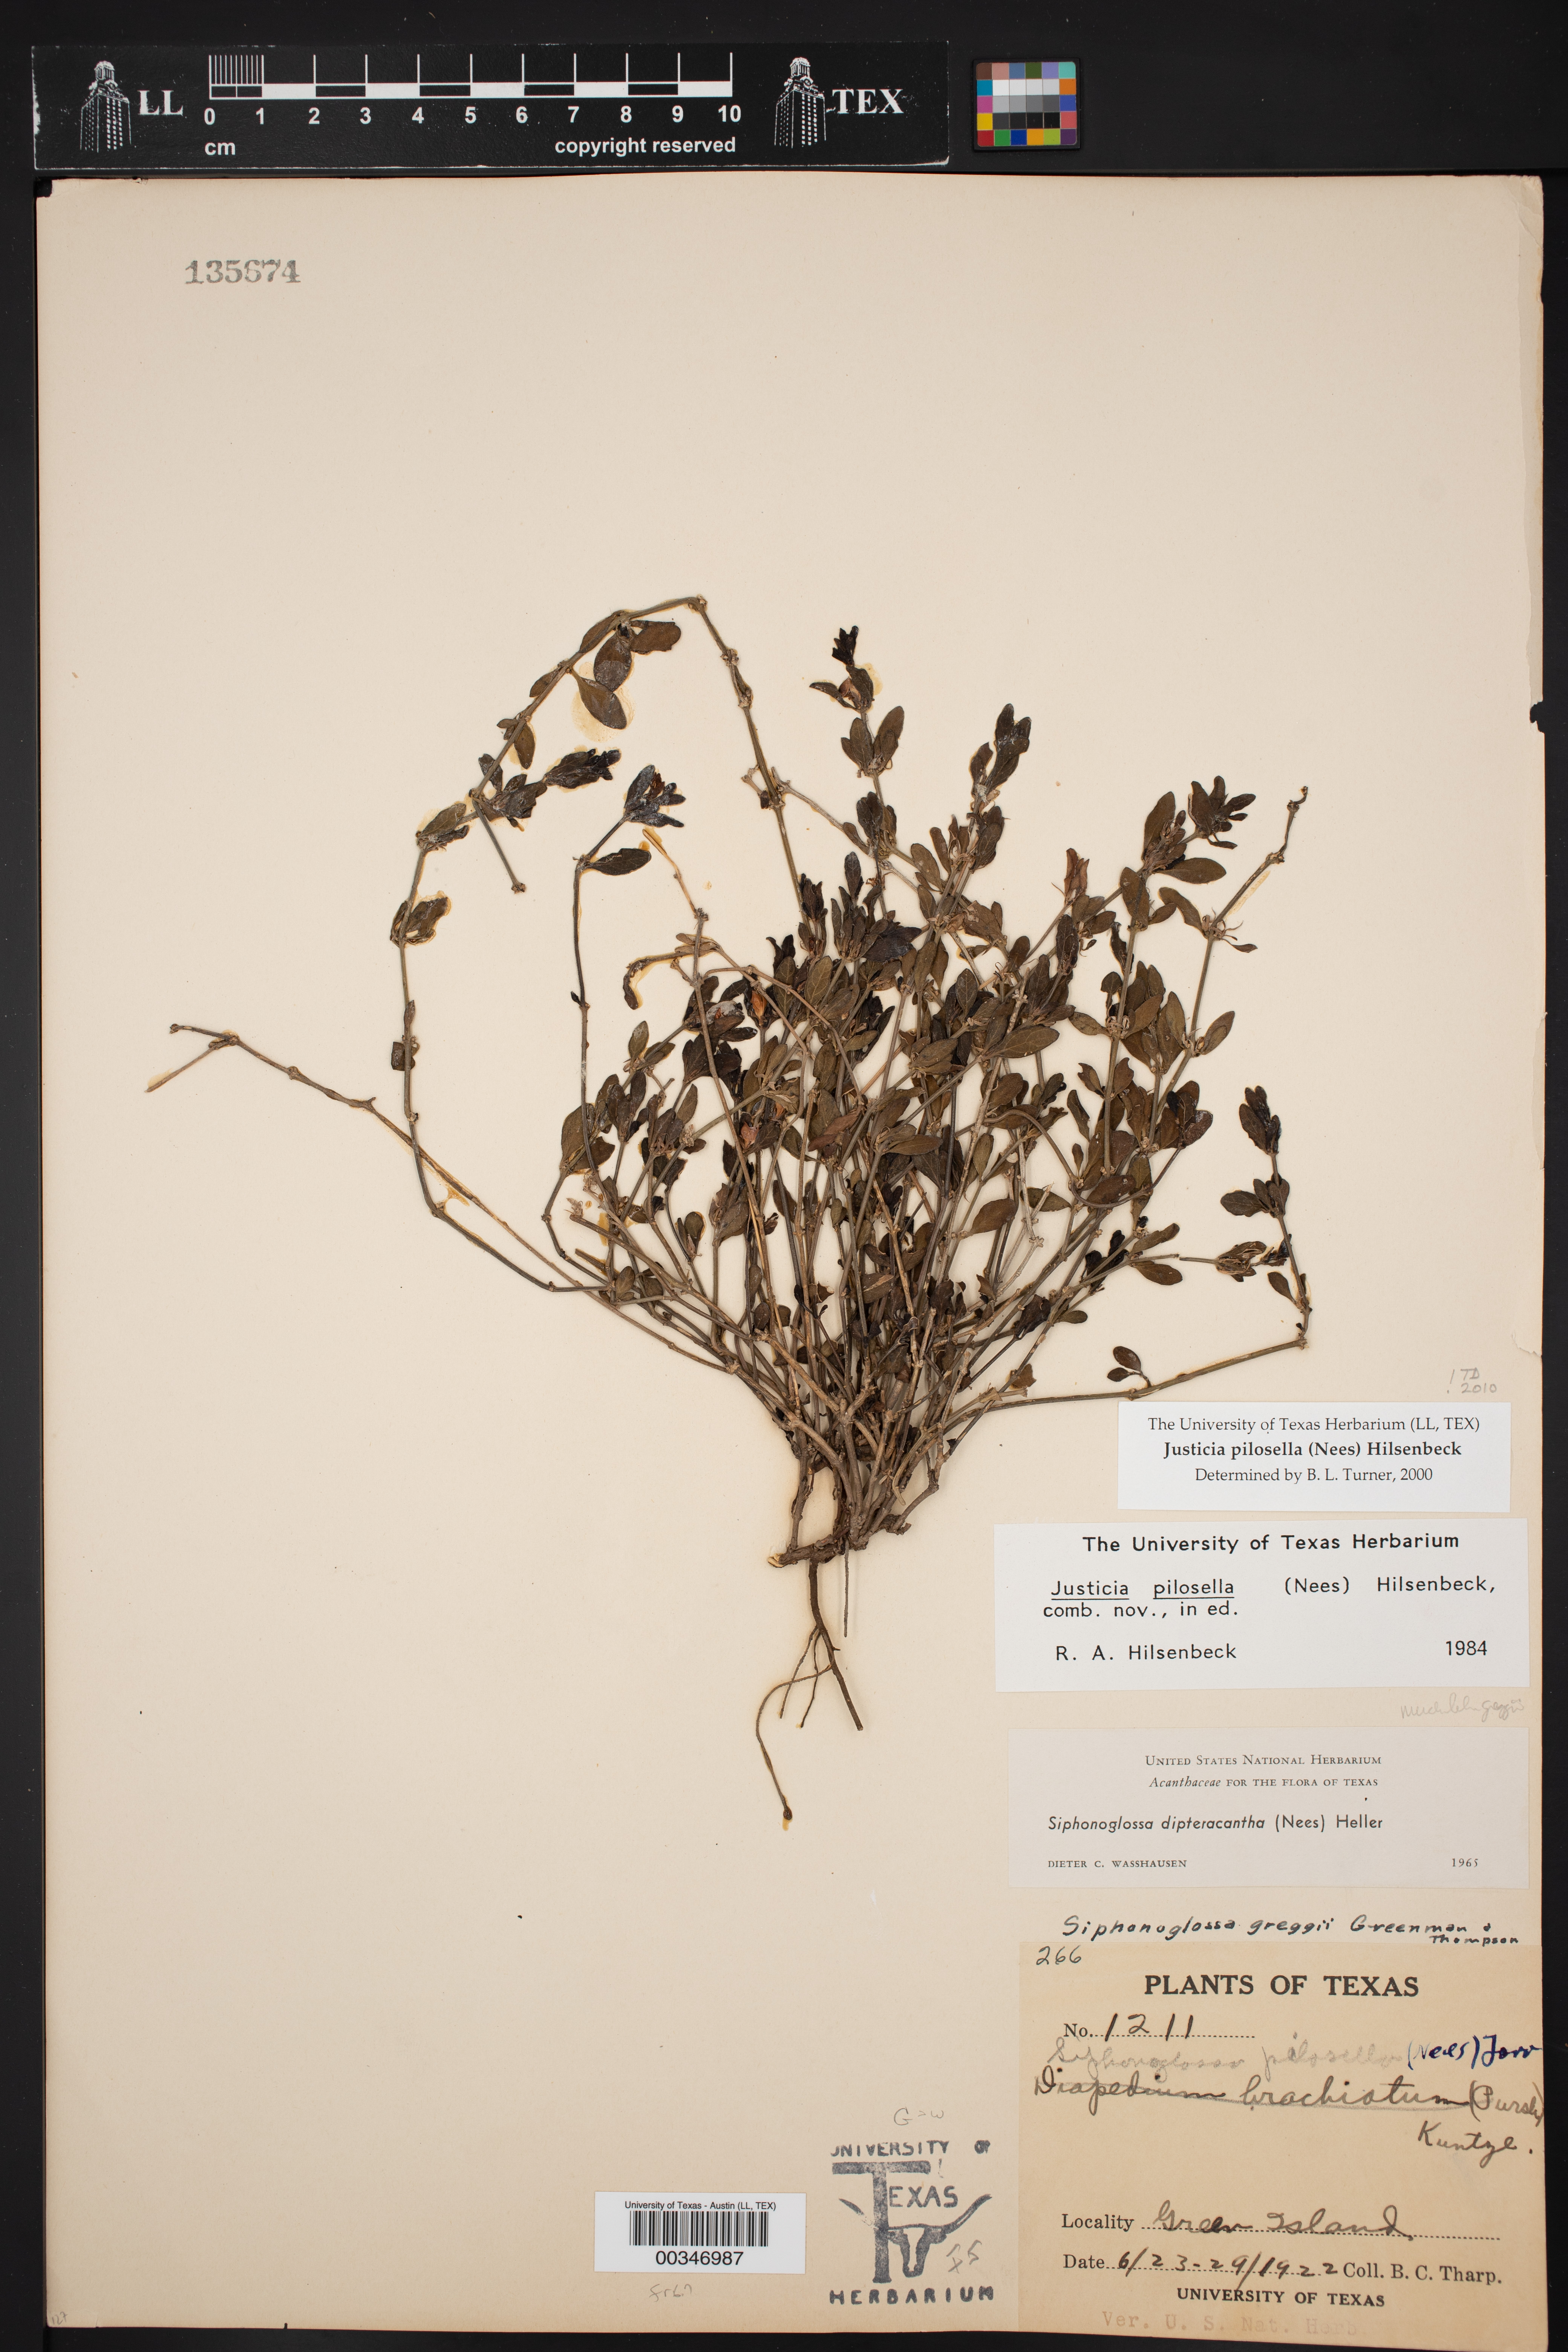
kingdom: Plantae
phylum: Tracheophyta
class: Magnoliopsida
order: Lamiales
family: Acanthaceae
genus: Justicia
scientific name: Justicia pilosella
